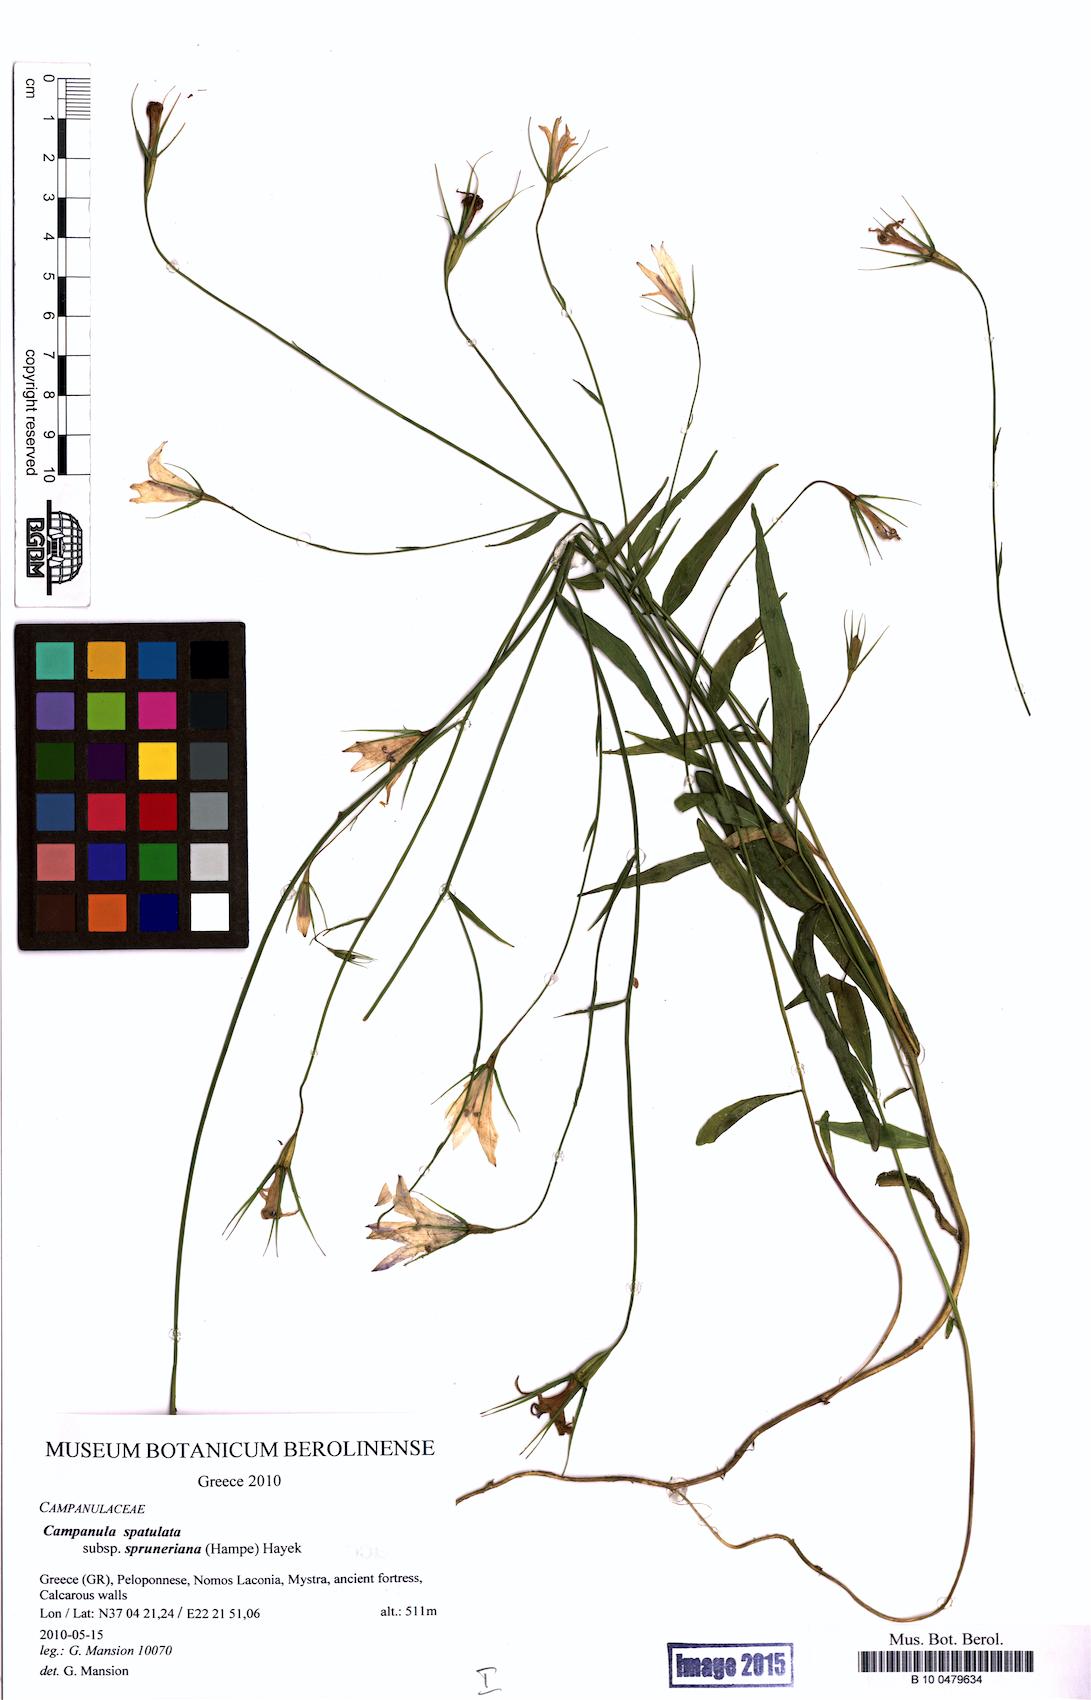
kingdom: Plantae
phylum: Tracheophyta
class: Magnoliopsida
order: Asterales
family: Campanulaceae
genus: Campanula
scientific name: Campanula spatulata
